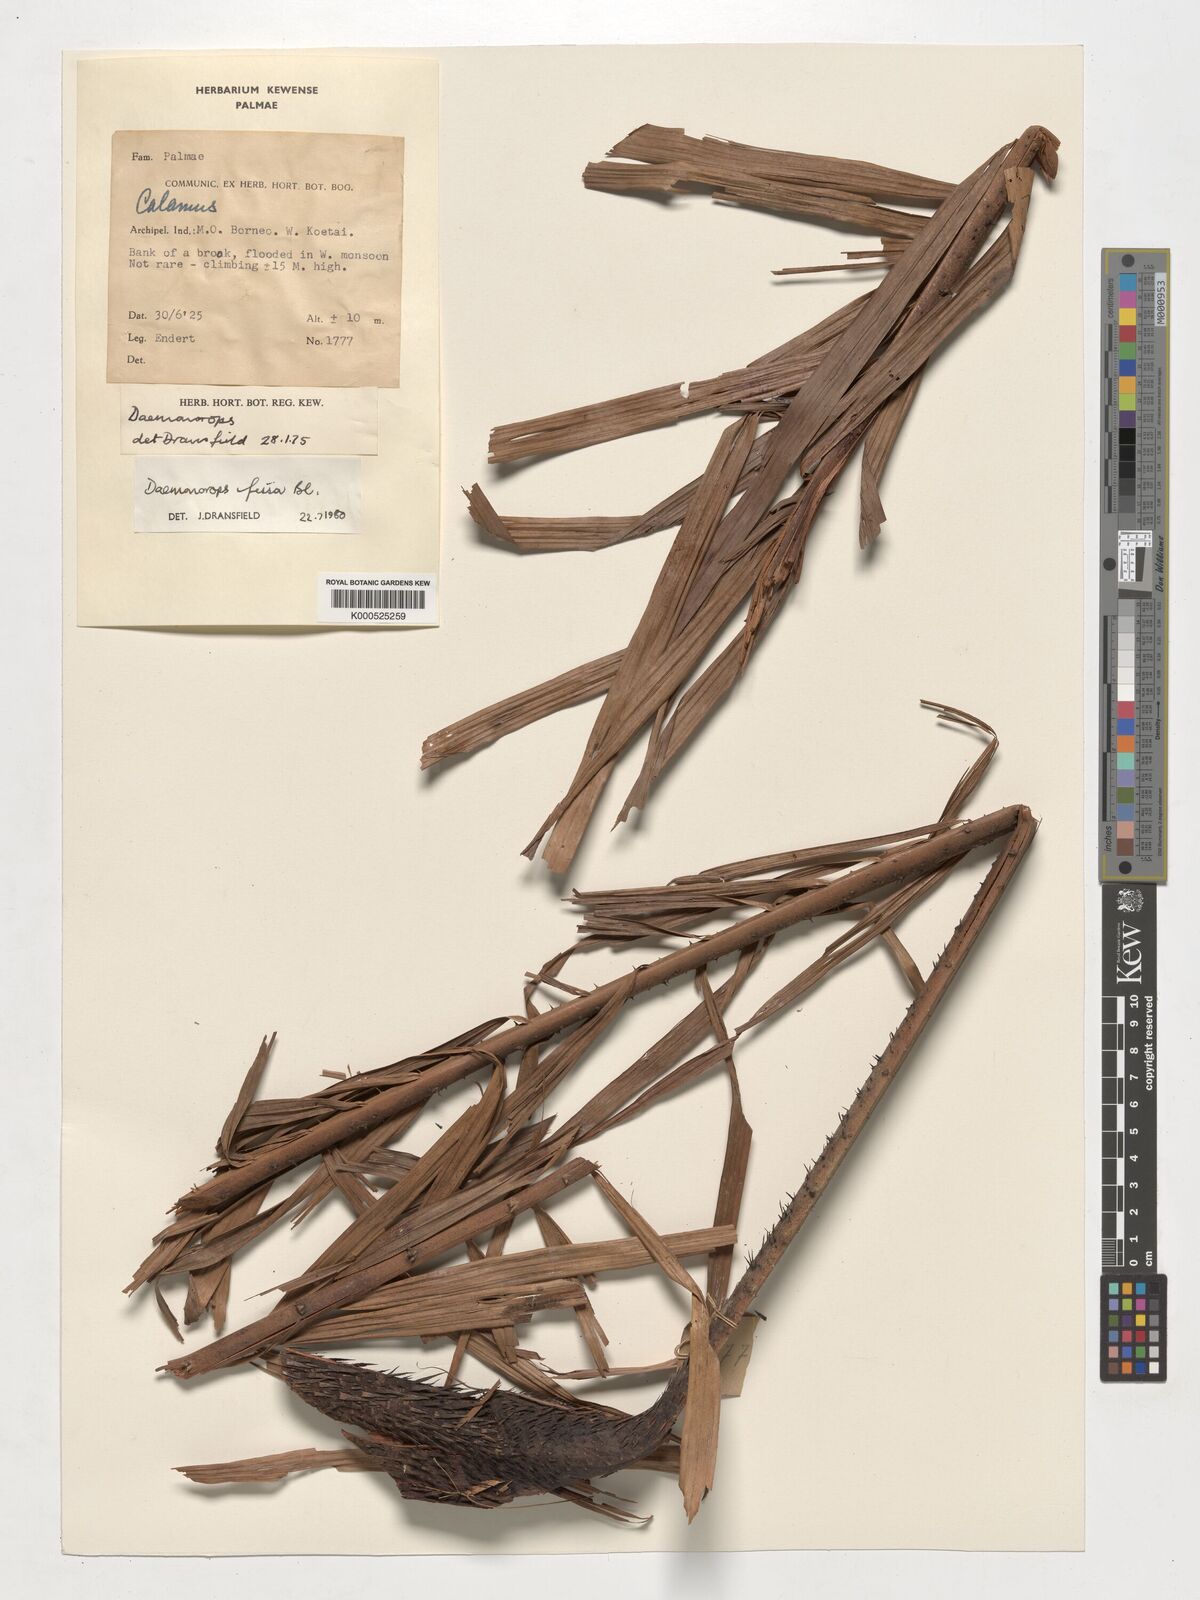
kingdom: Plantae
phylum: Tracheophyta
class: Liliopsida
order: Arecales
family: Arecaceae
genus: Calamus
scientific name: Calamus melanochaetes
